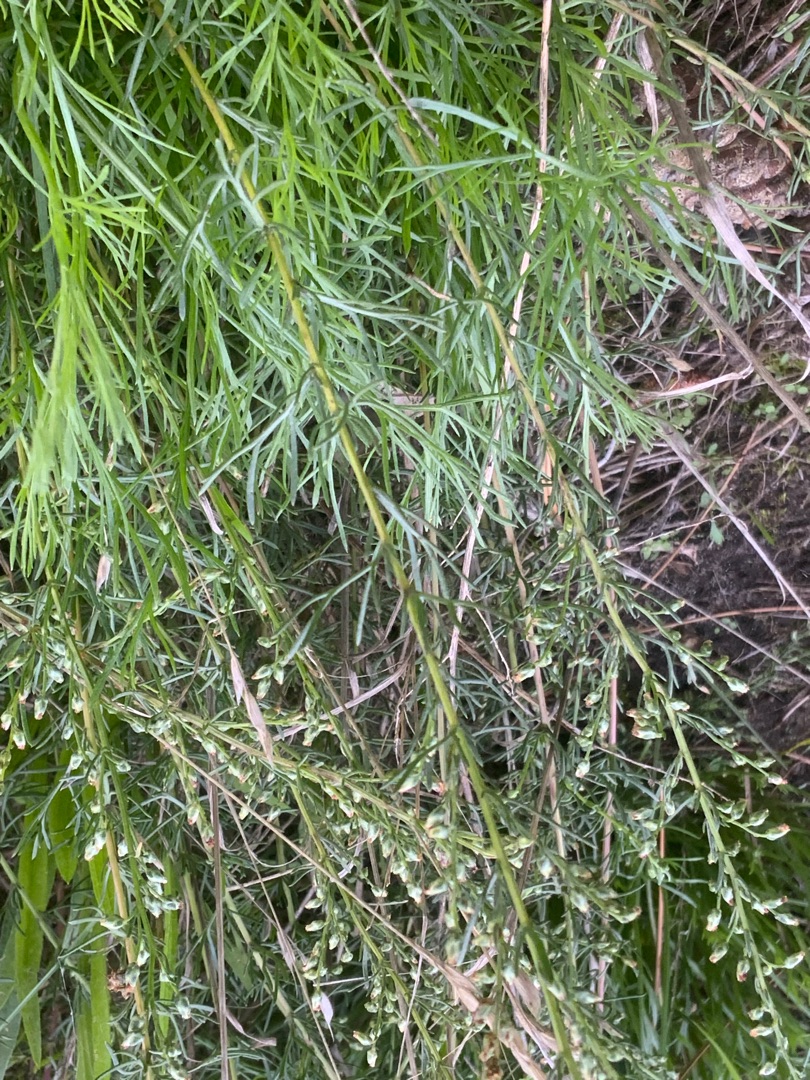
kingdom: Plantae
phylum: Tracheophyta
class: Magnoliopsida
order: Asterales
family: Asteraceae
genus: Artemisia
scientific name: Artemisia campestris
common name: Mark-bynke
